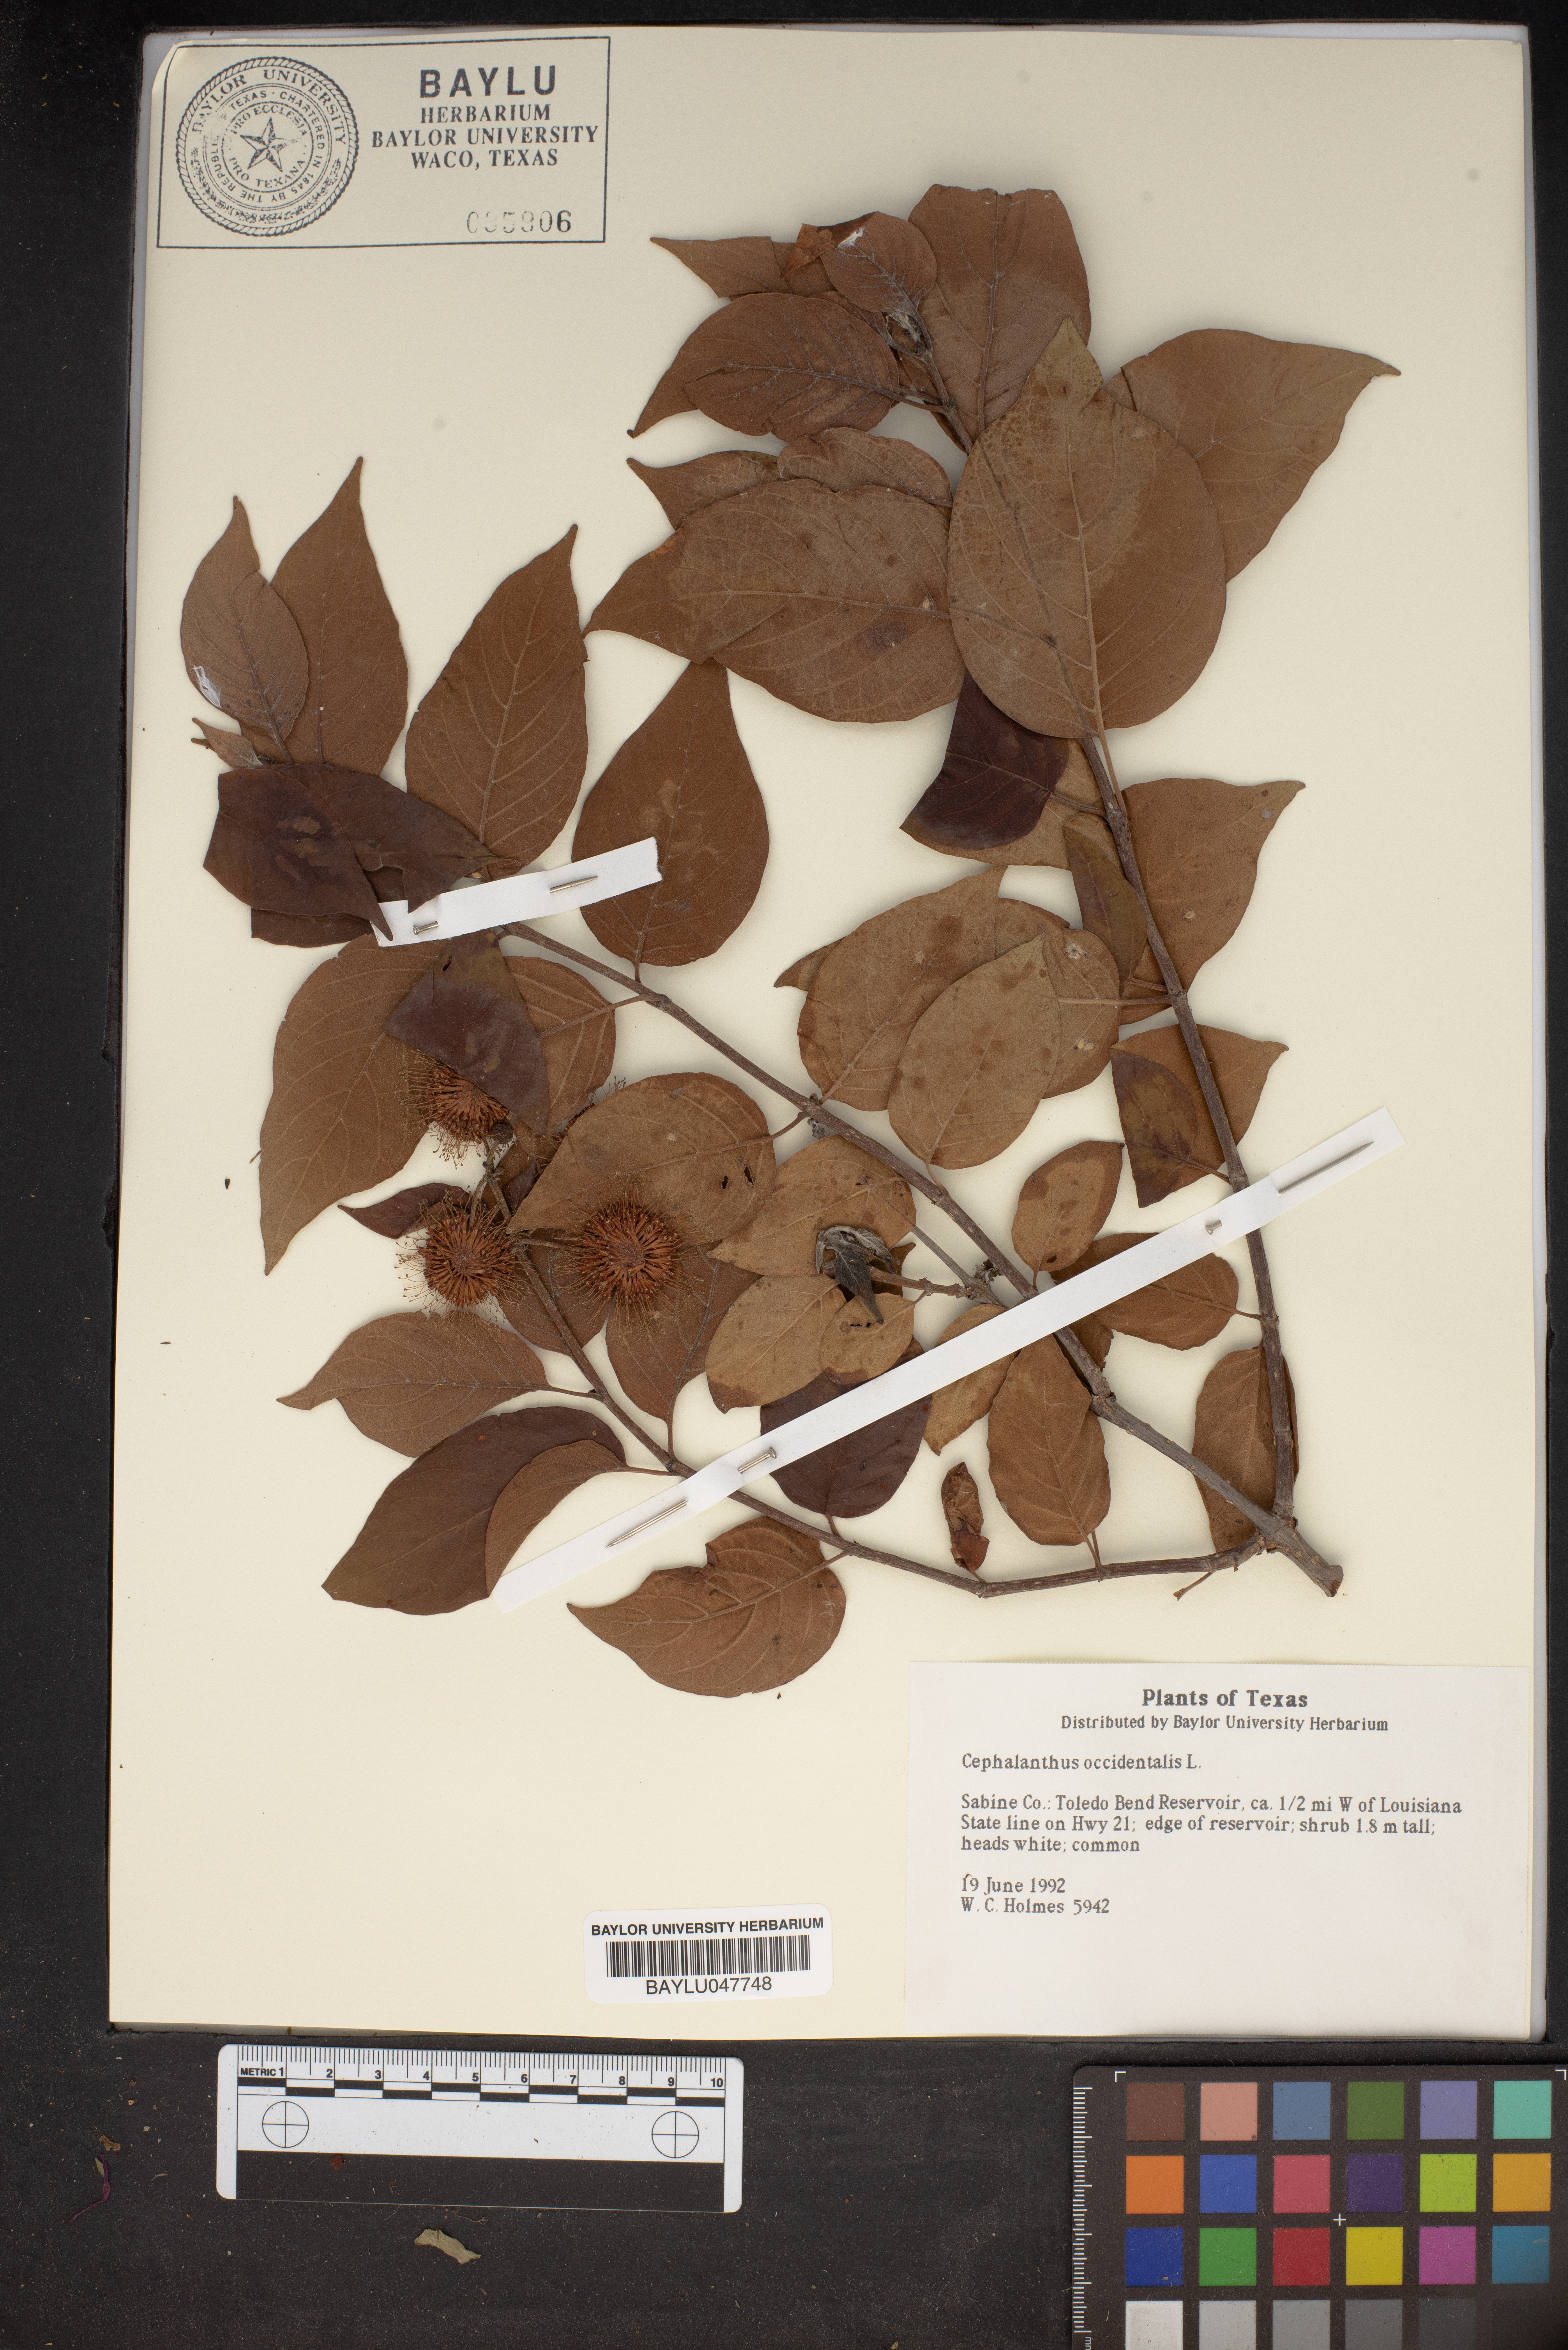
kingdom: Plantae
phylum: Tracheophyta
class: Magnoliopsida
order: Gentianales
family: Rubiaceae
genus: Cephalanthus
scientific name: Cephalanthus occidentalis
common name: Button-willow
